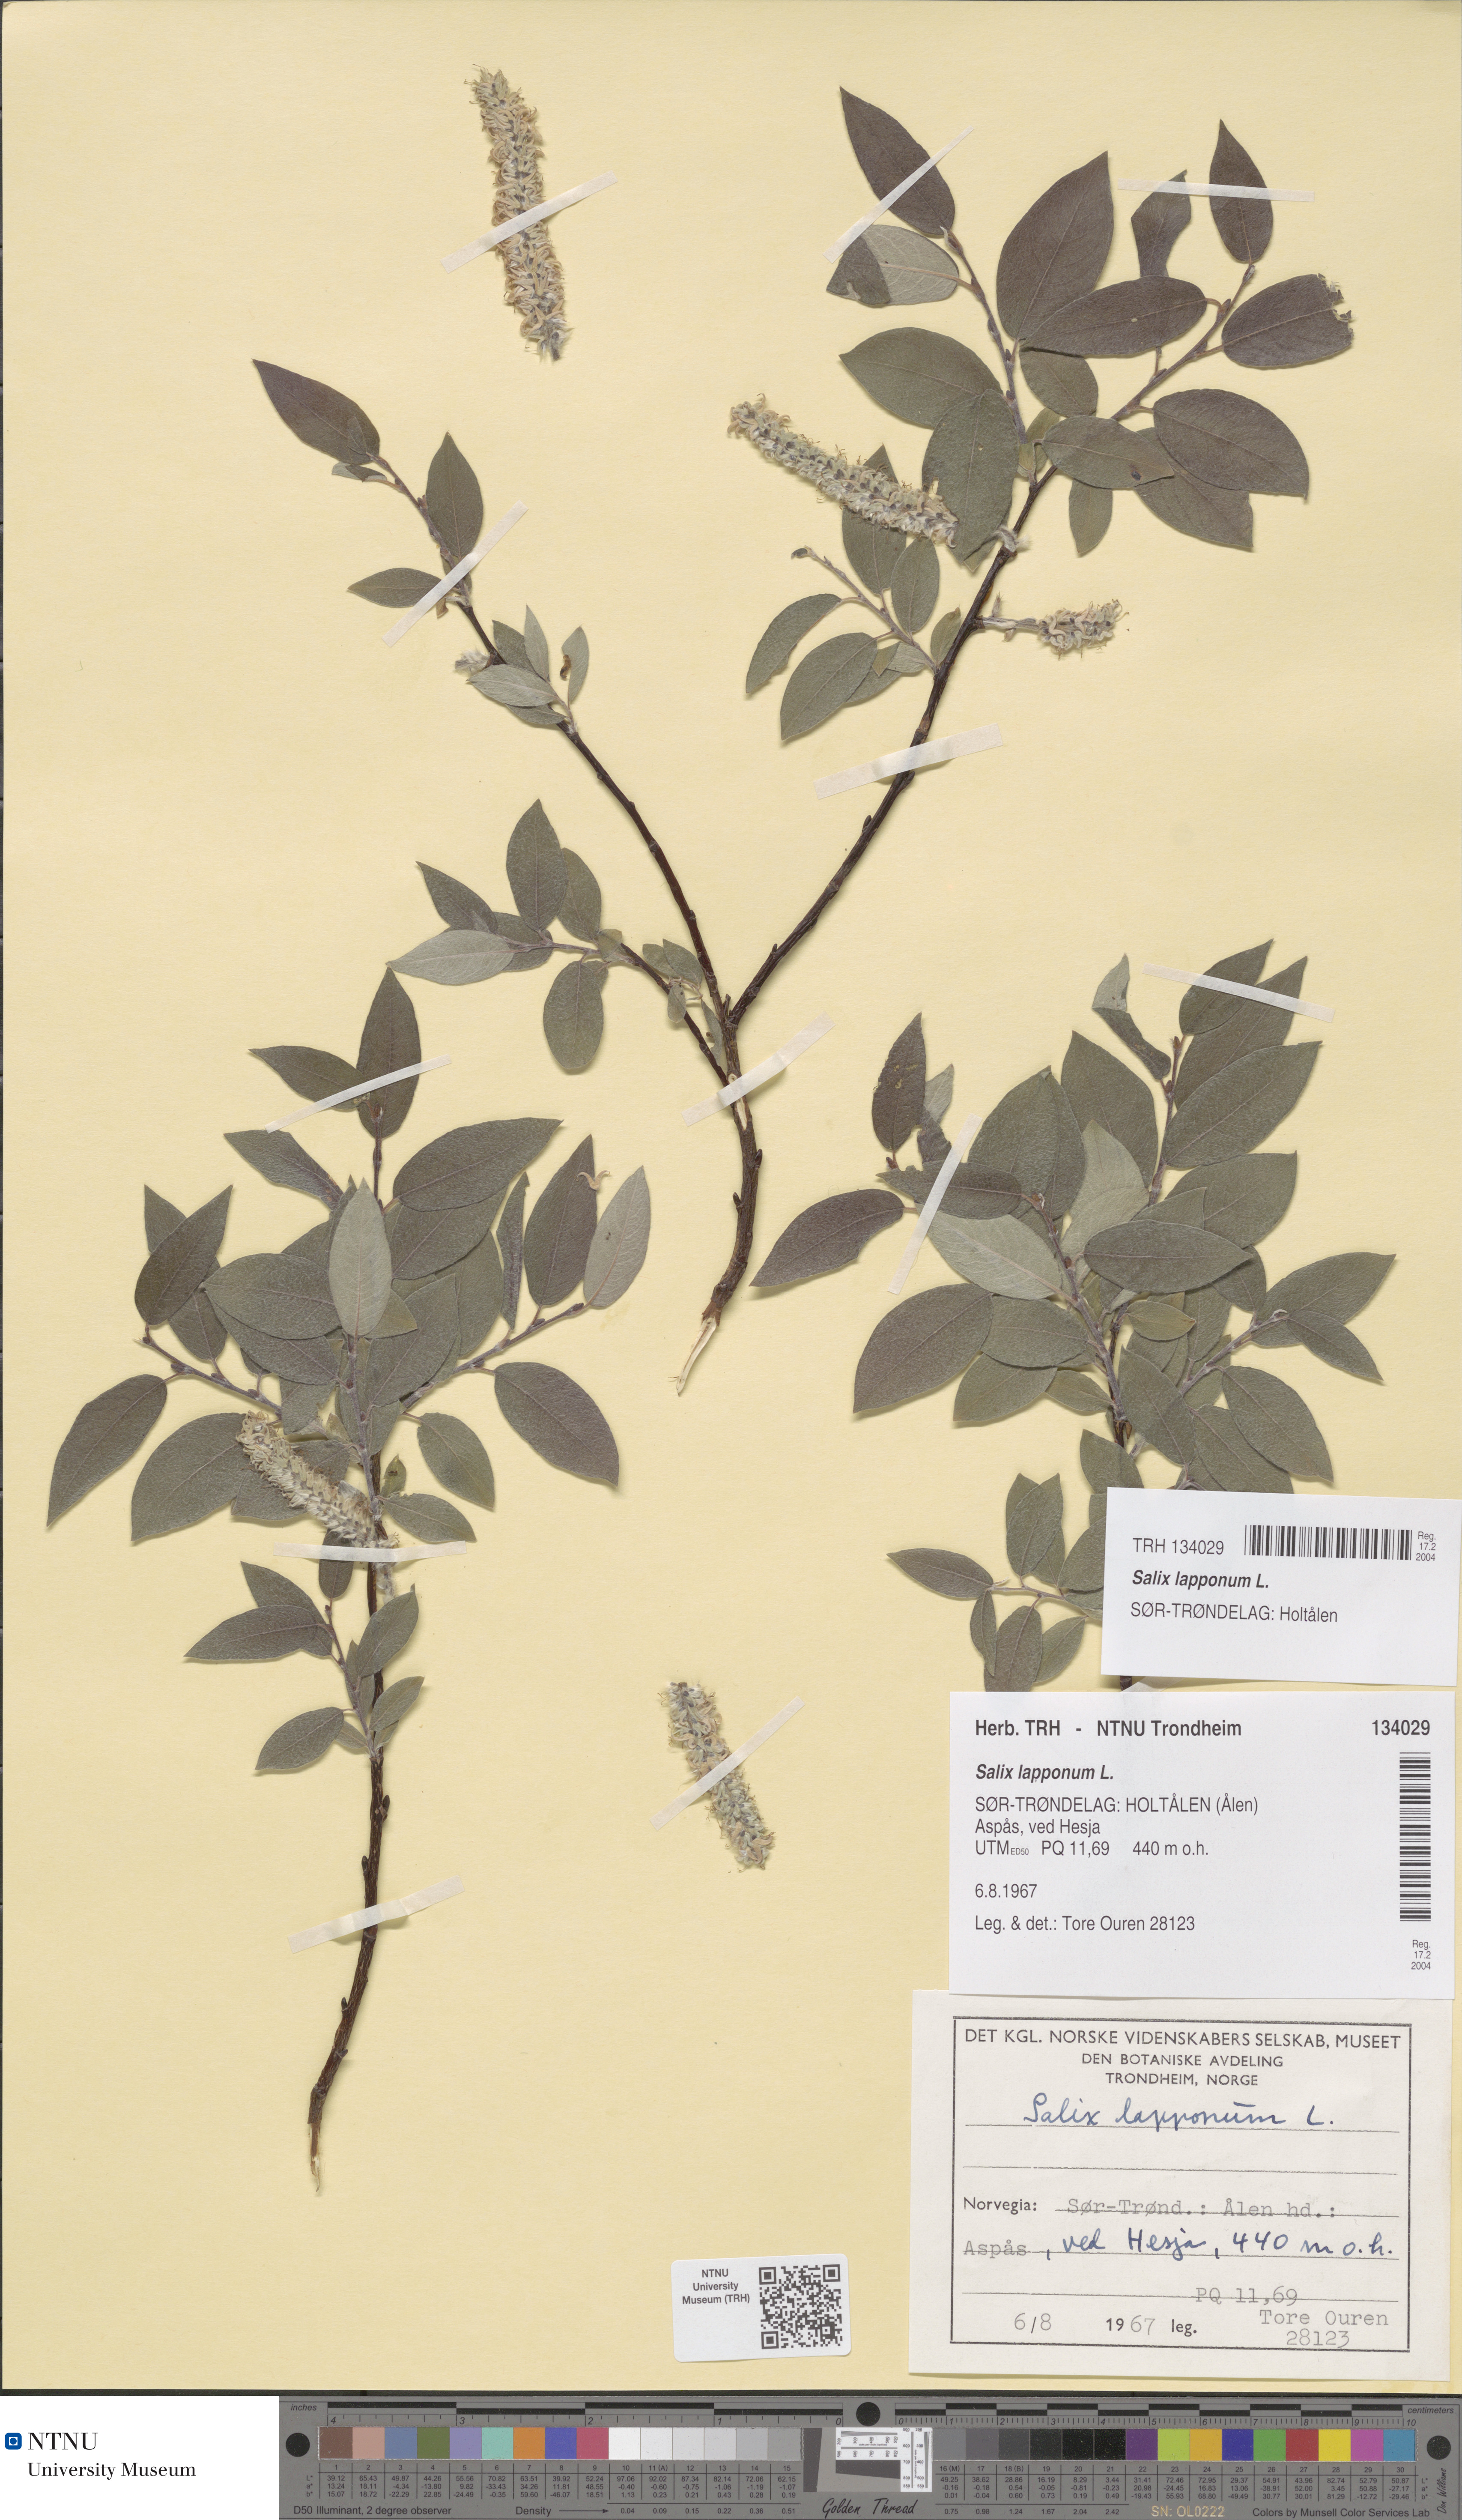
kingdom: Plantae
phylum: Tracheophyta
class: Magnoliopsida
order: Malpighiales
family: Salicaceae
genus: Salix
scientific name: Salix lapponum
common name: Downy willow
